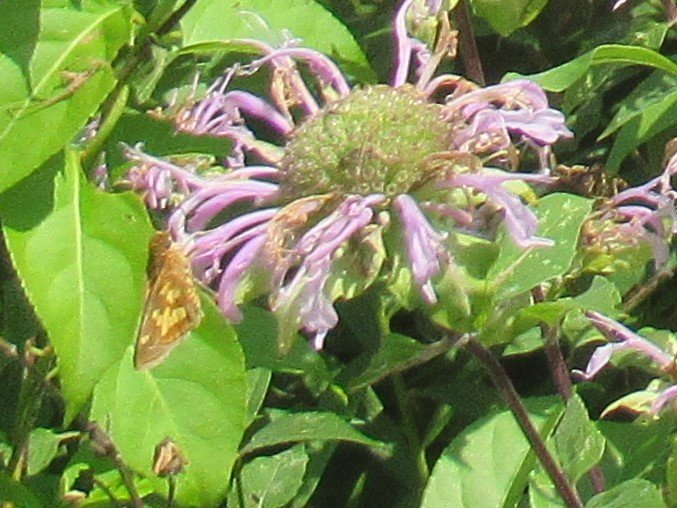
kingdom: Animalia
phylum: Arthropoda
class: Insecta
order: Lepidoptera
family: Hesperiidae
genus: Polites
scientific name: Polites coras
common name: Peck's Skipper
